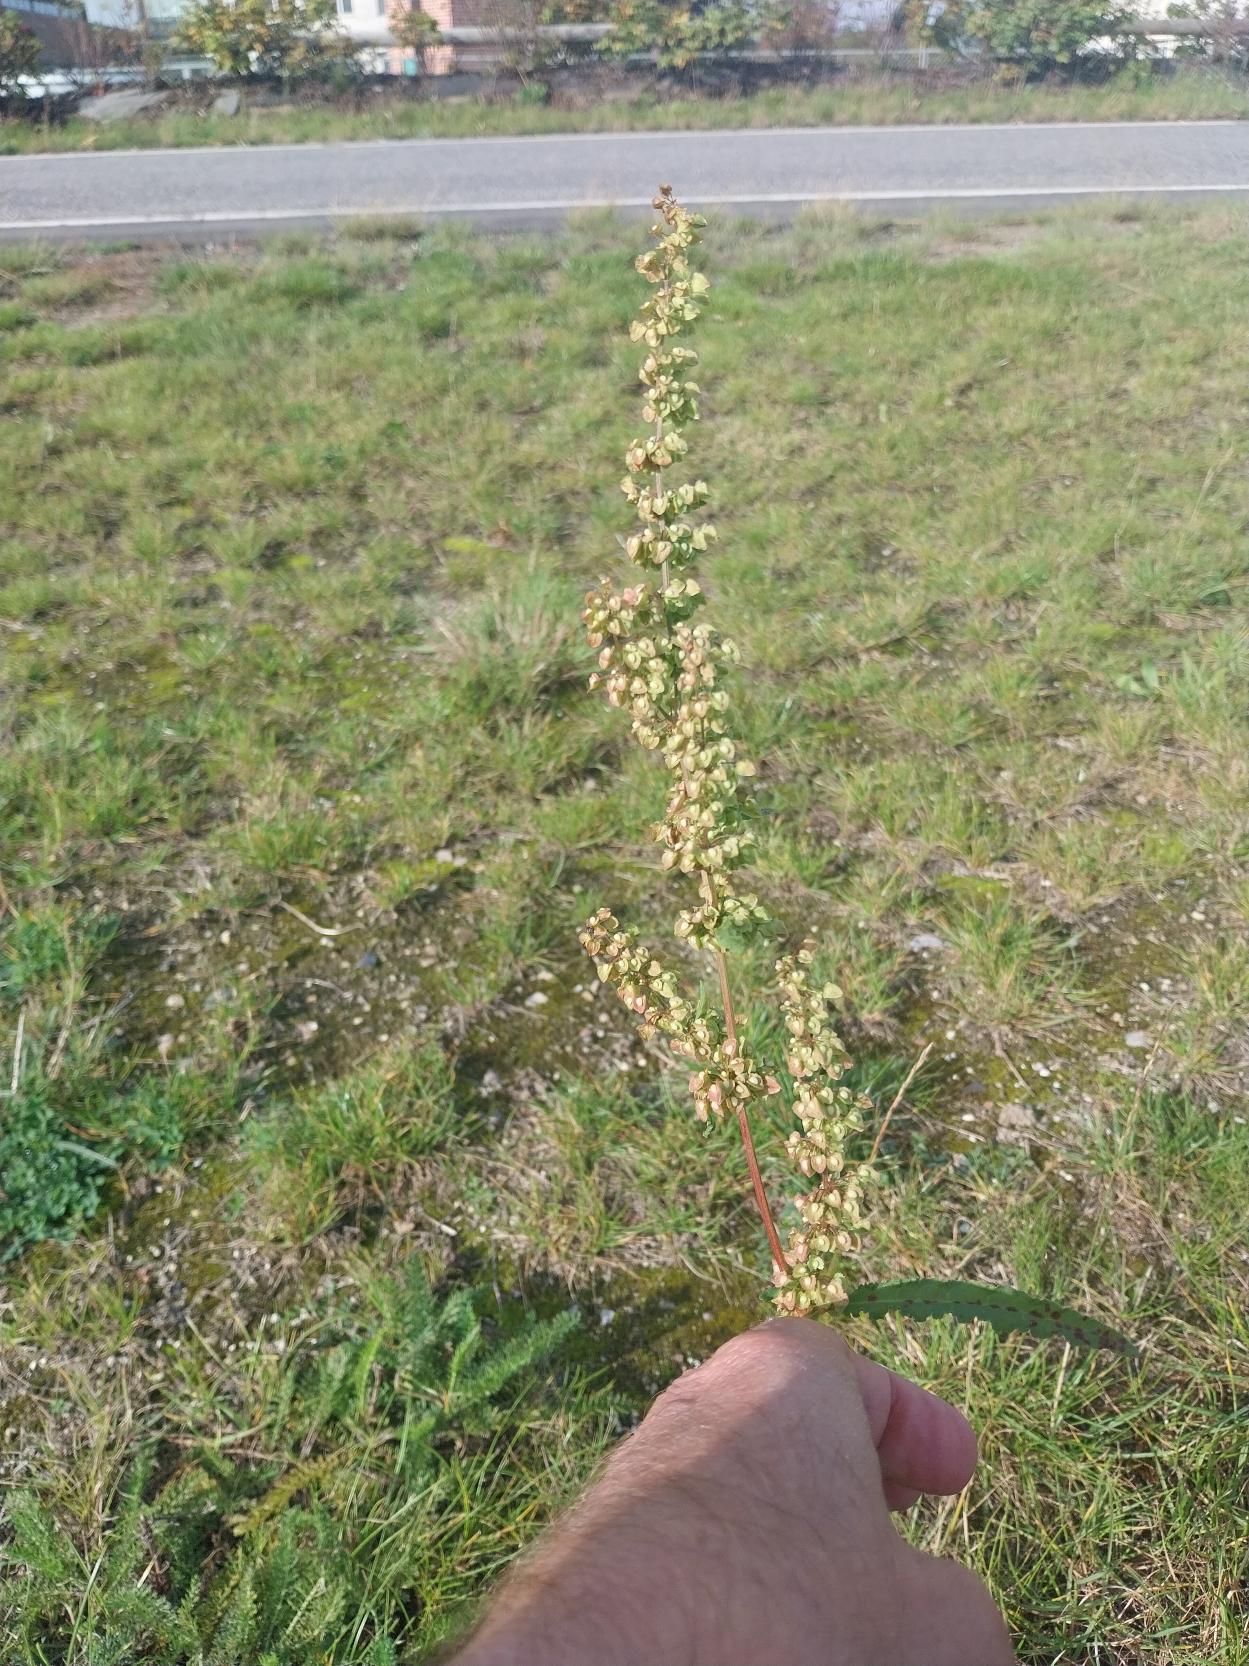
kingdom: Plantae
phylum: Tracheophyta
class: Magnoliopsida
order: Caryophyllales
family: Polygonaceae
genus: Rumex
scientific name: Rumex crispus
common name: Kruset skræppe
